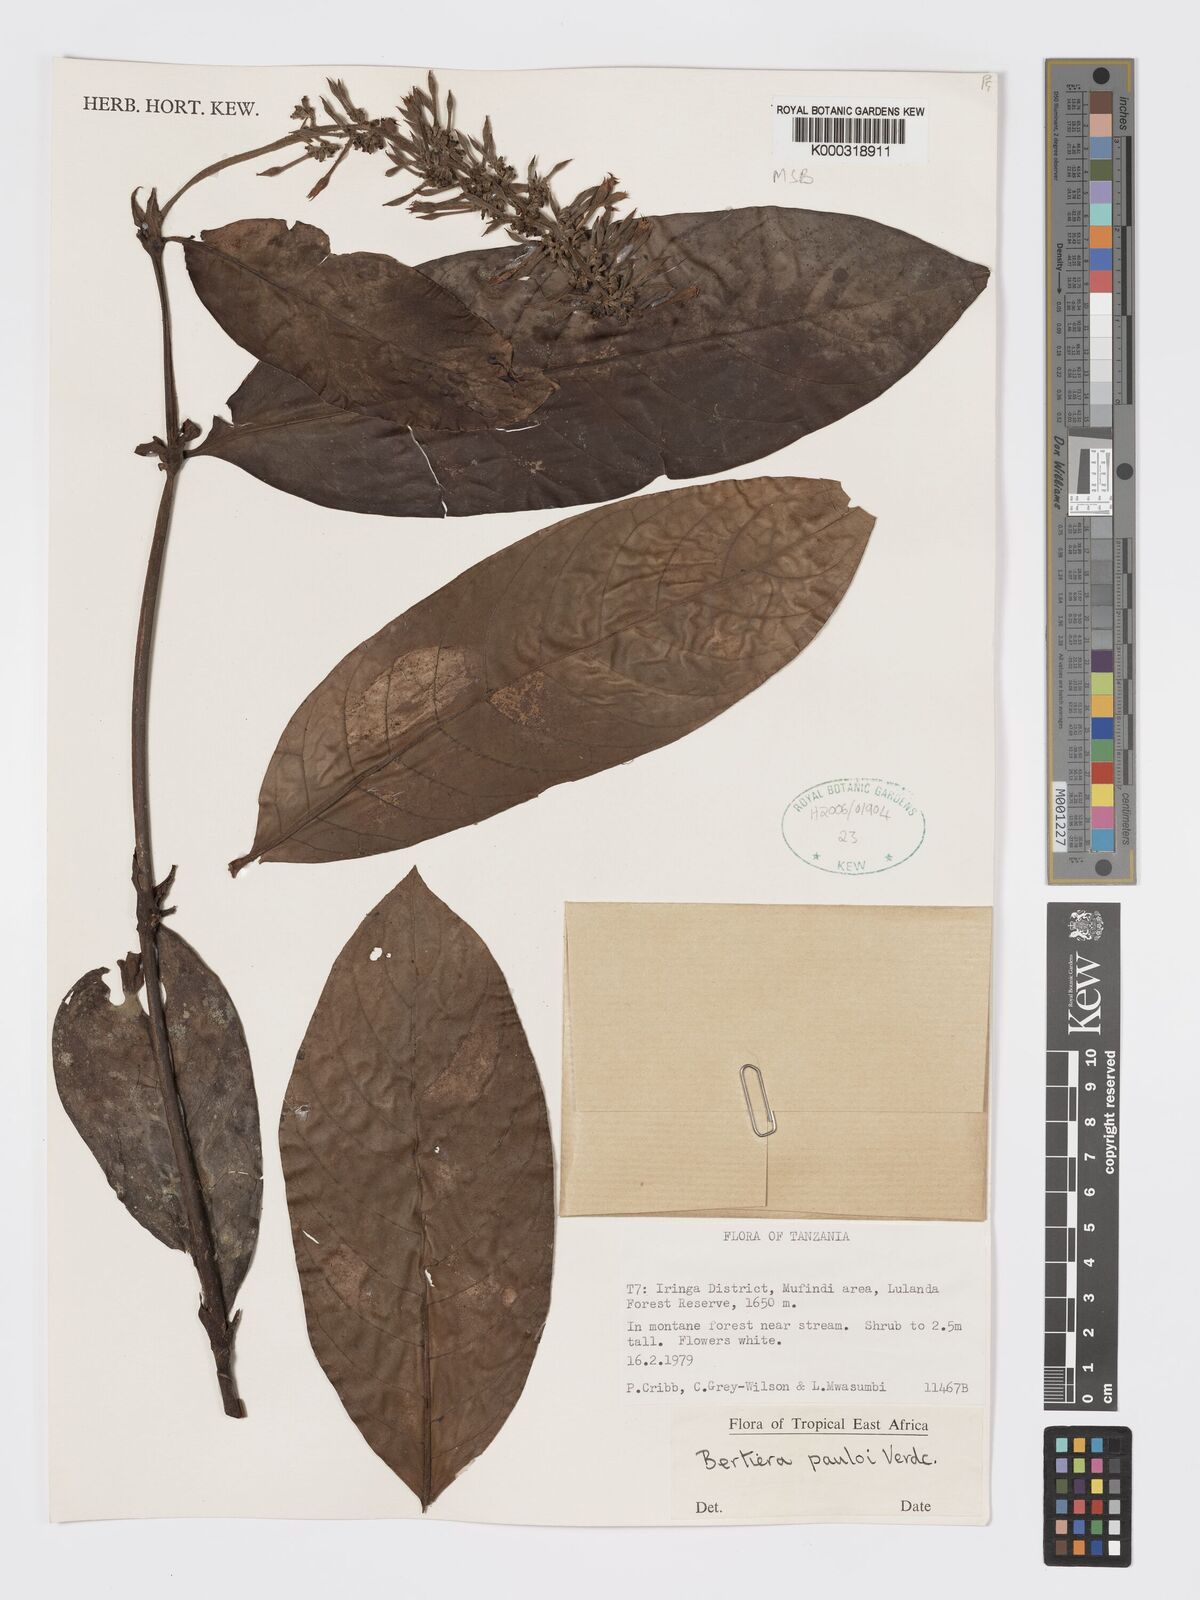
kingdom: Plantae
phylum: Tracheophyta
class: Magnoliopsida
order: Gentianales
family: Rubiaceae
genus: Bertiera
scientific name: Bertiera pauloi
